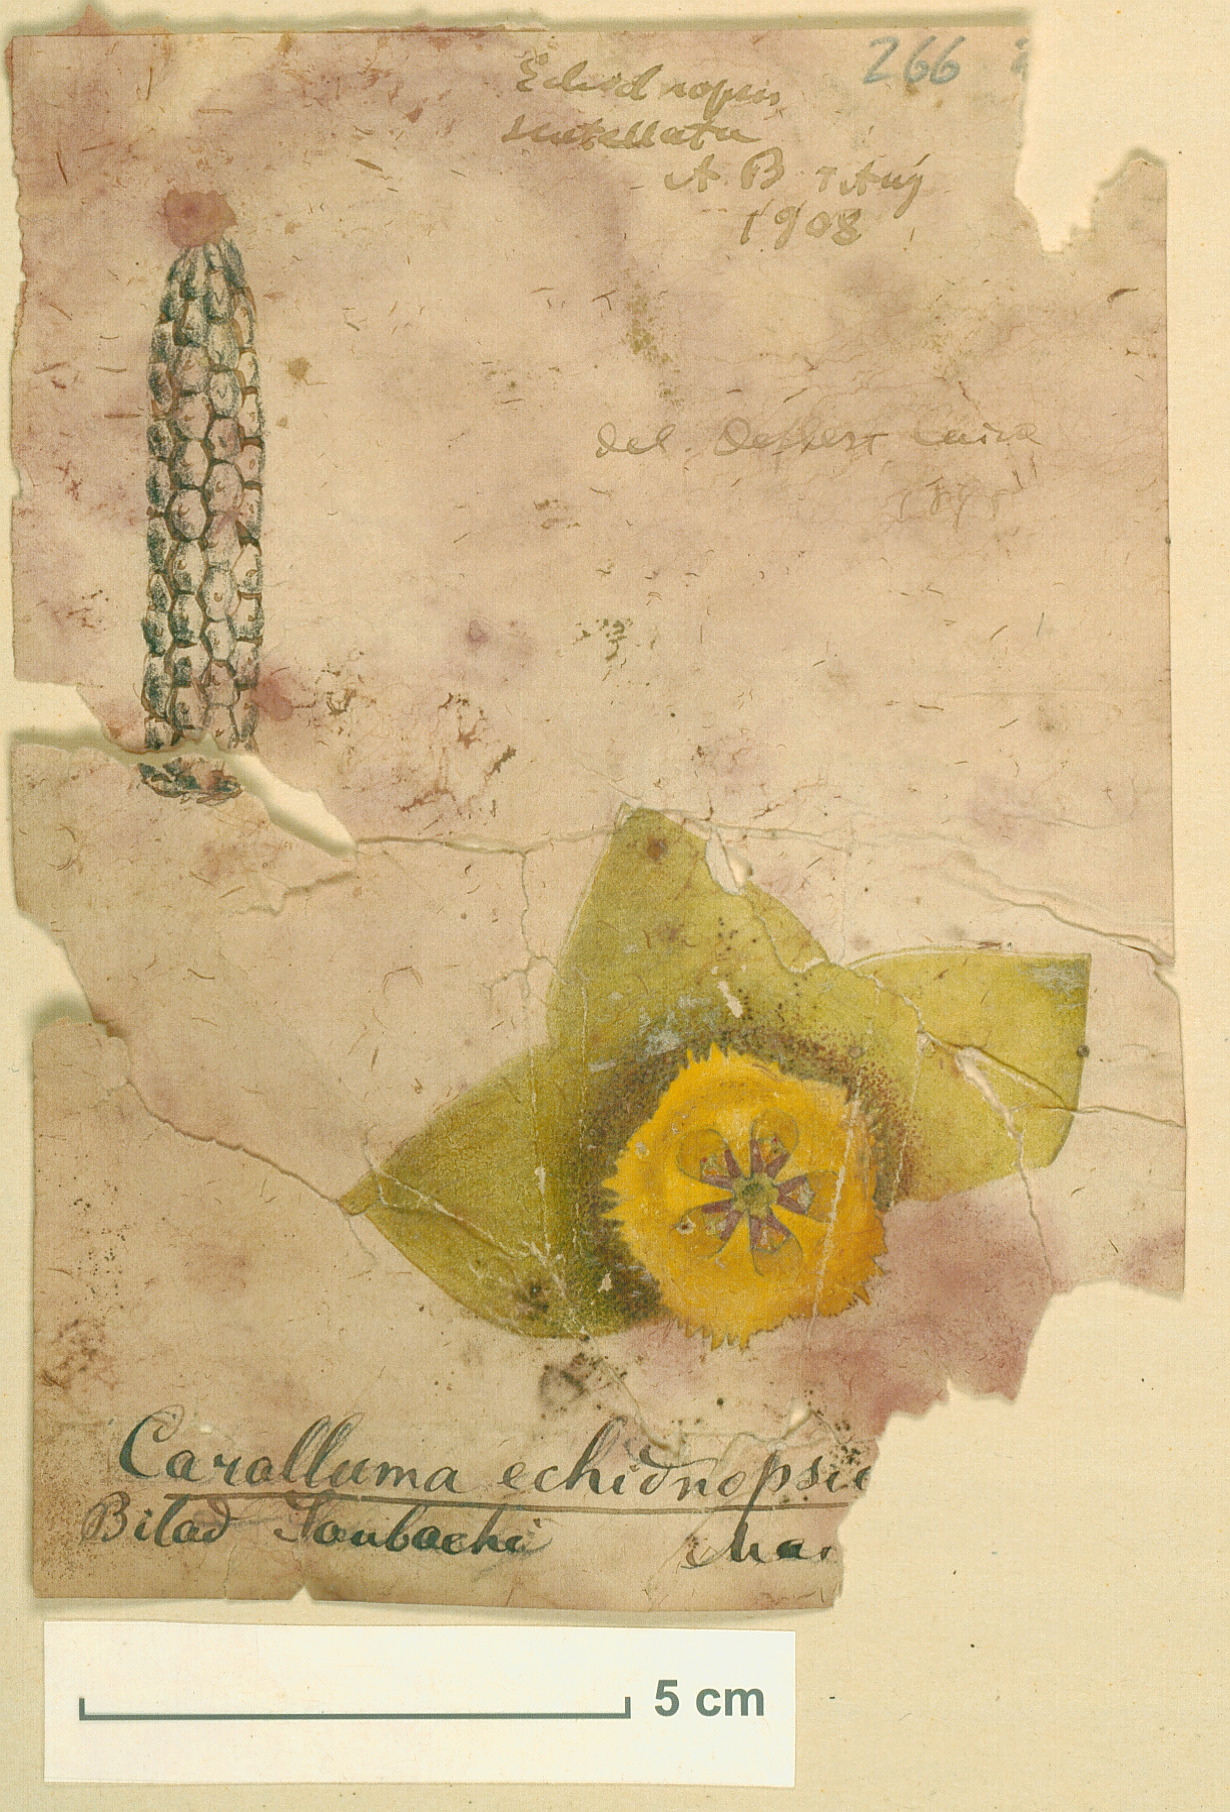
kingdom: Plantae
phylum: Tracheophyta
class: Magnoliopsida
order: Gentianales
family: Apocynaceae
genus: Ceropegia
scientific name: Ceropegia scutellata
